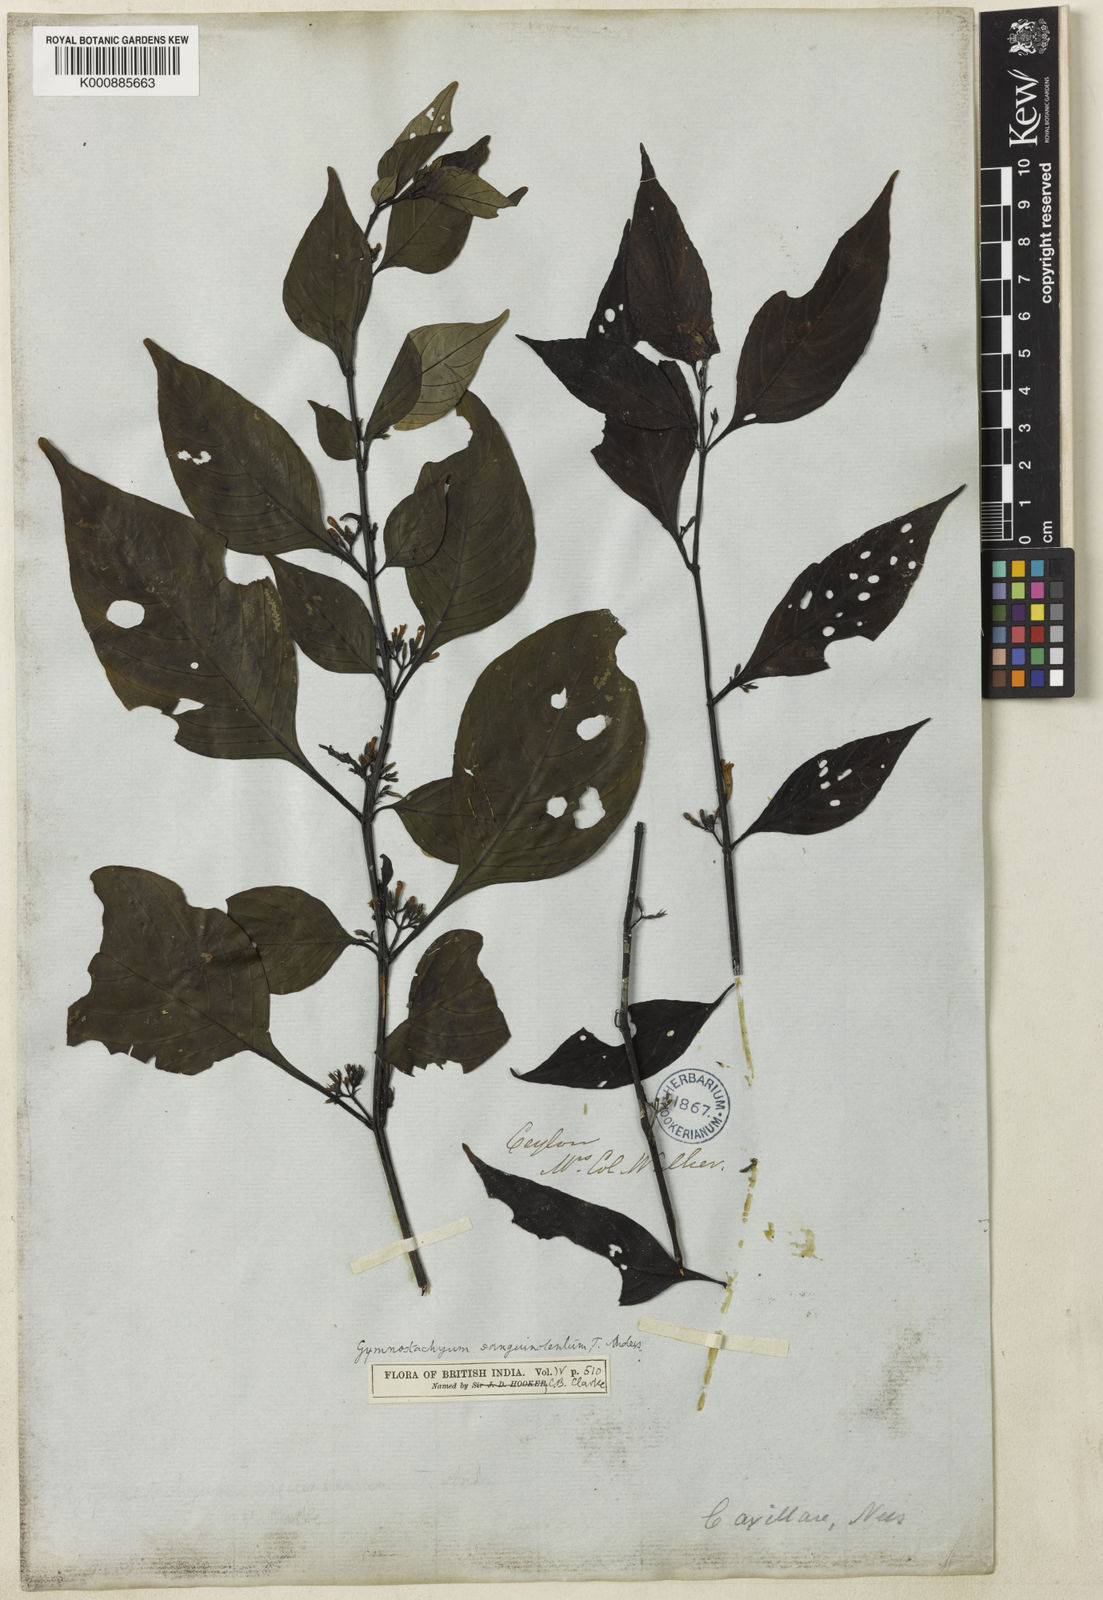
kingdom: Plantae
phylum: Tracheophyta
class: Magnoliopsida
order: Lamiales
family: Acanthaceae
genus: Gymnostachyum
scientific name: Gymnostachyum sanguinolentum
